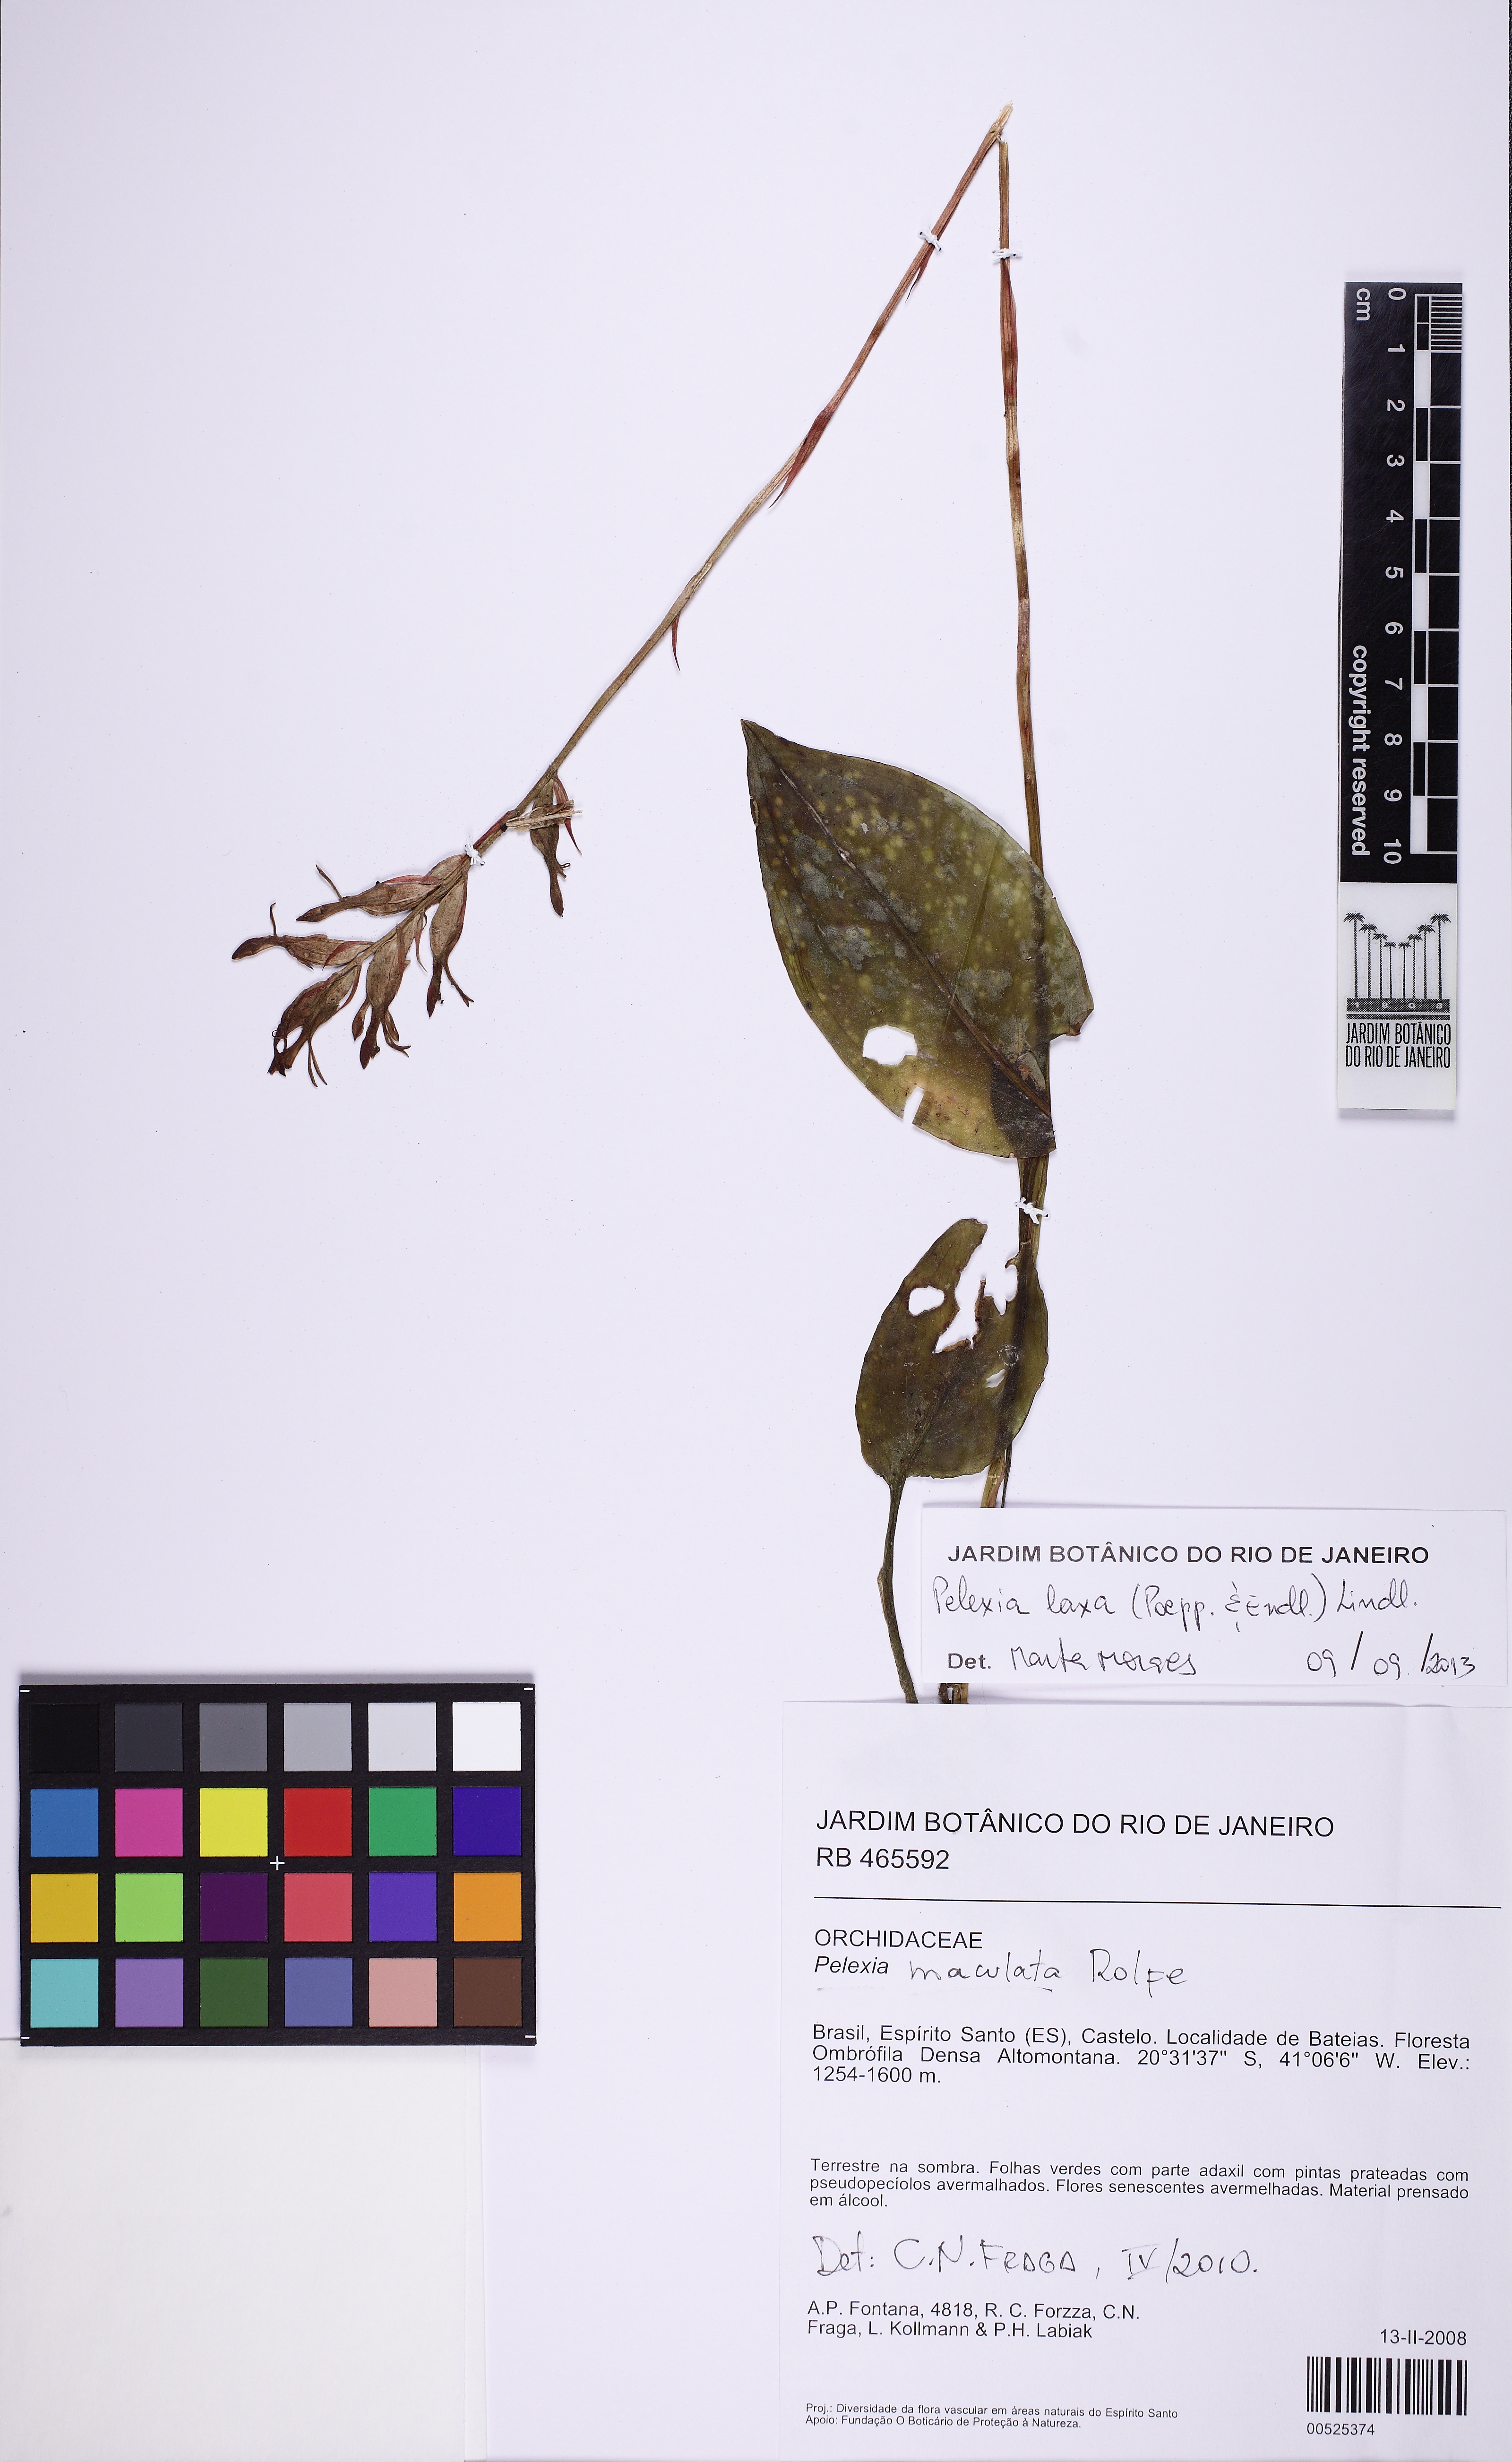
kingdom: Plantae
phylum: Tracheophyta
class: Liliopsida
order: Asparagales
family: Orchidaceae
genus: Pelexia
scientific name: Pelexia laxa
